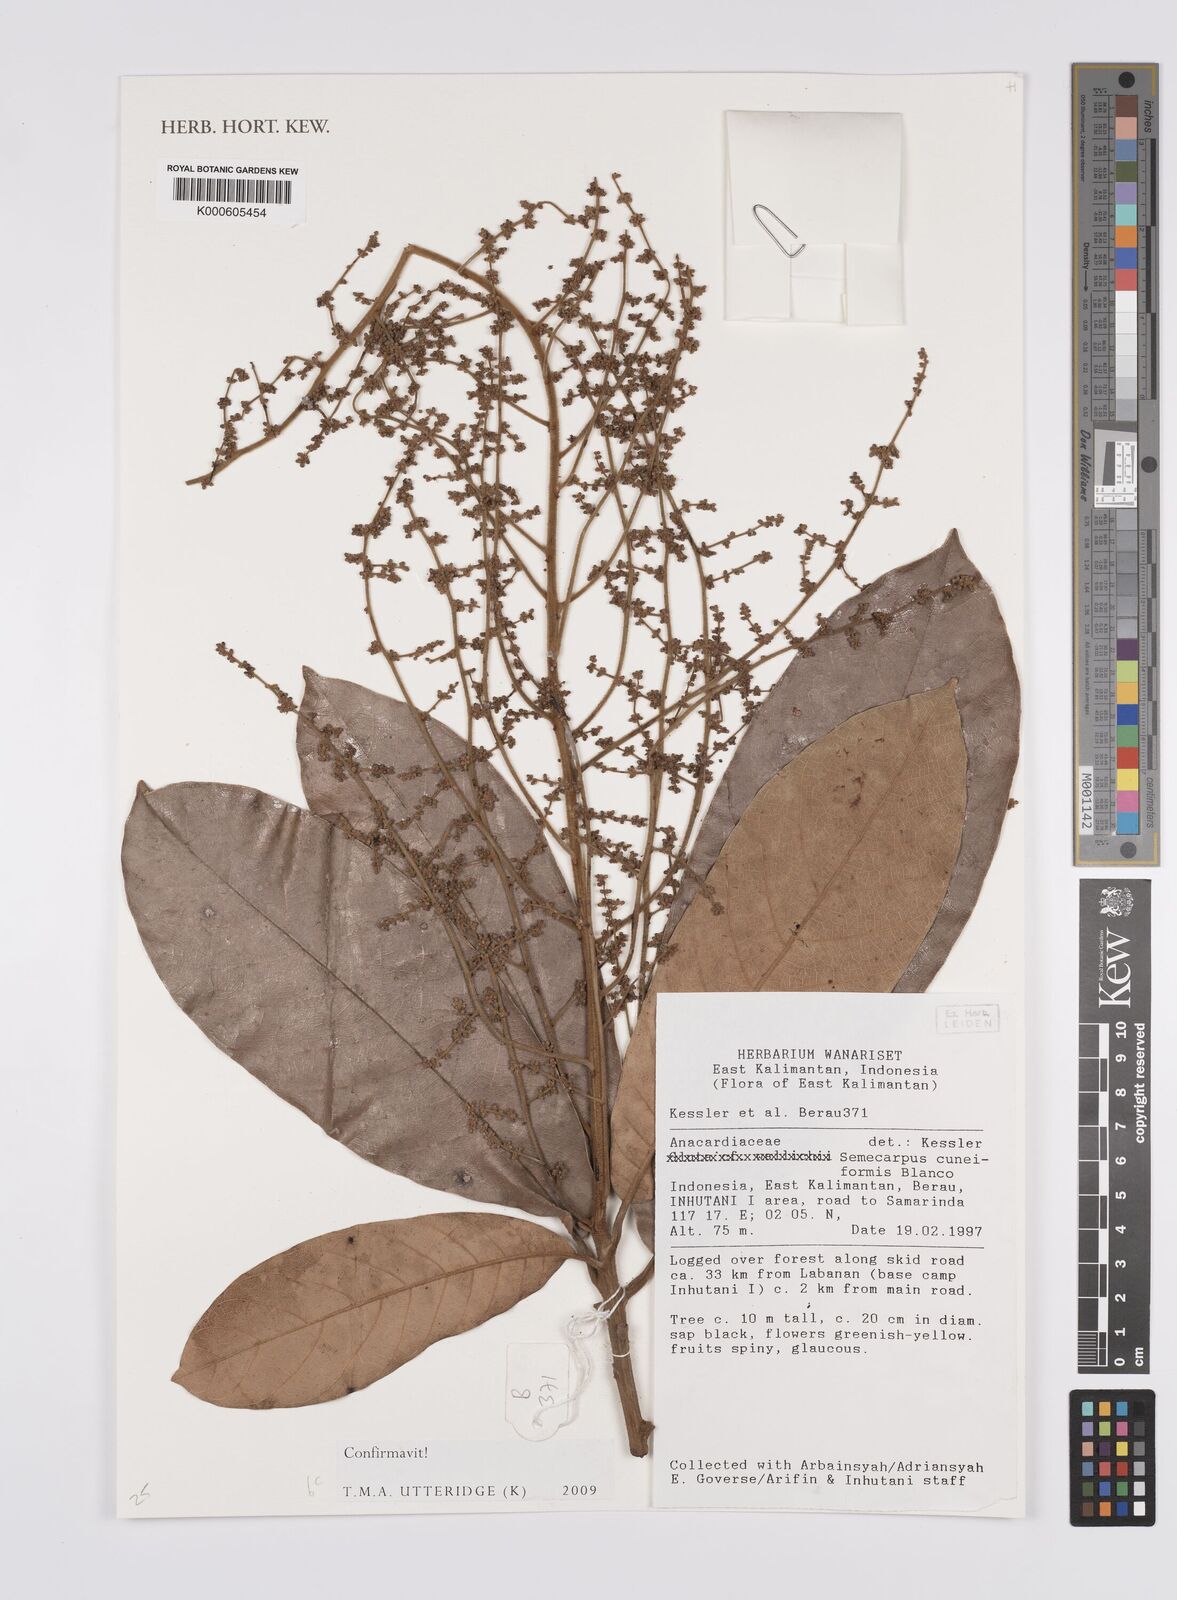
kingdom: Plantae
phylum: Tracheophyta
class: Magnoliopsida
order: Sapindales
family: Anacardiaceae
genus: Semecarpus
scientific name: Semecarpus cuneiformis
